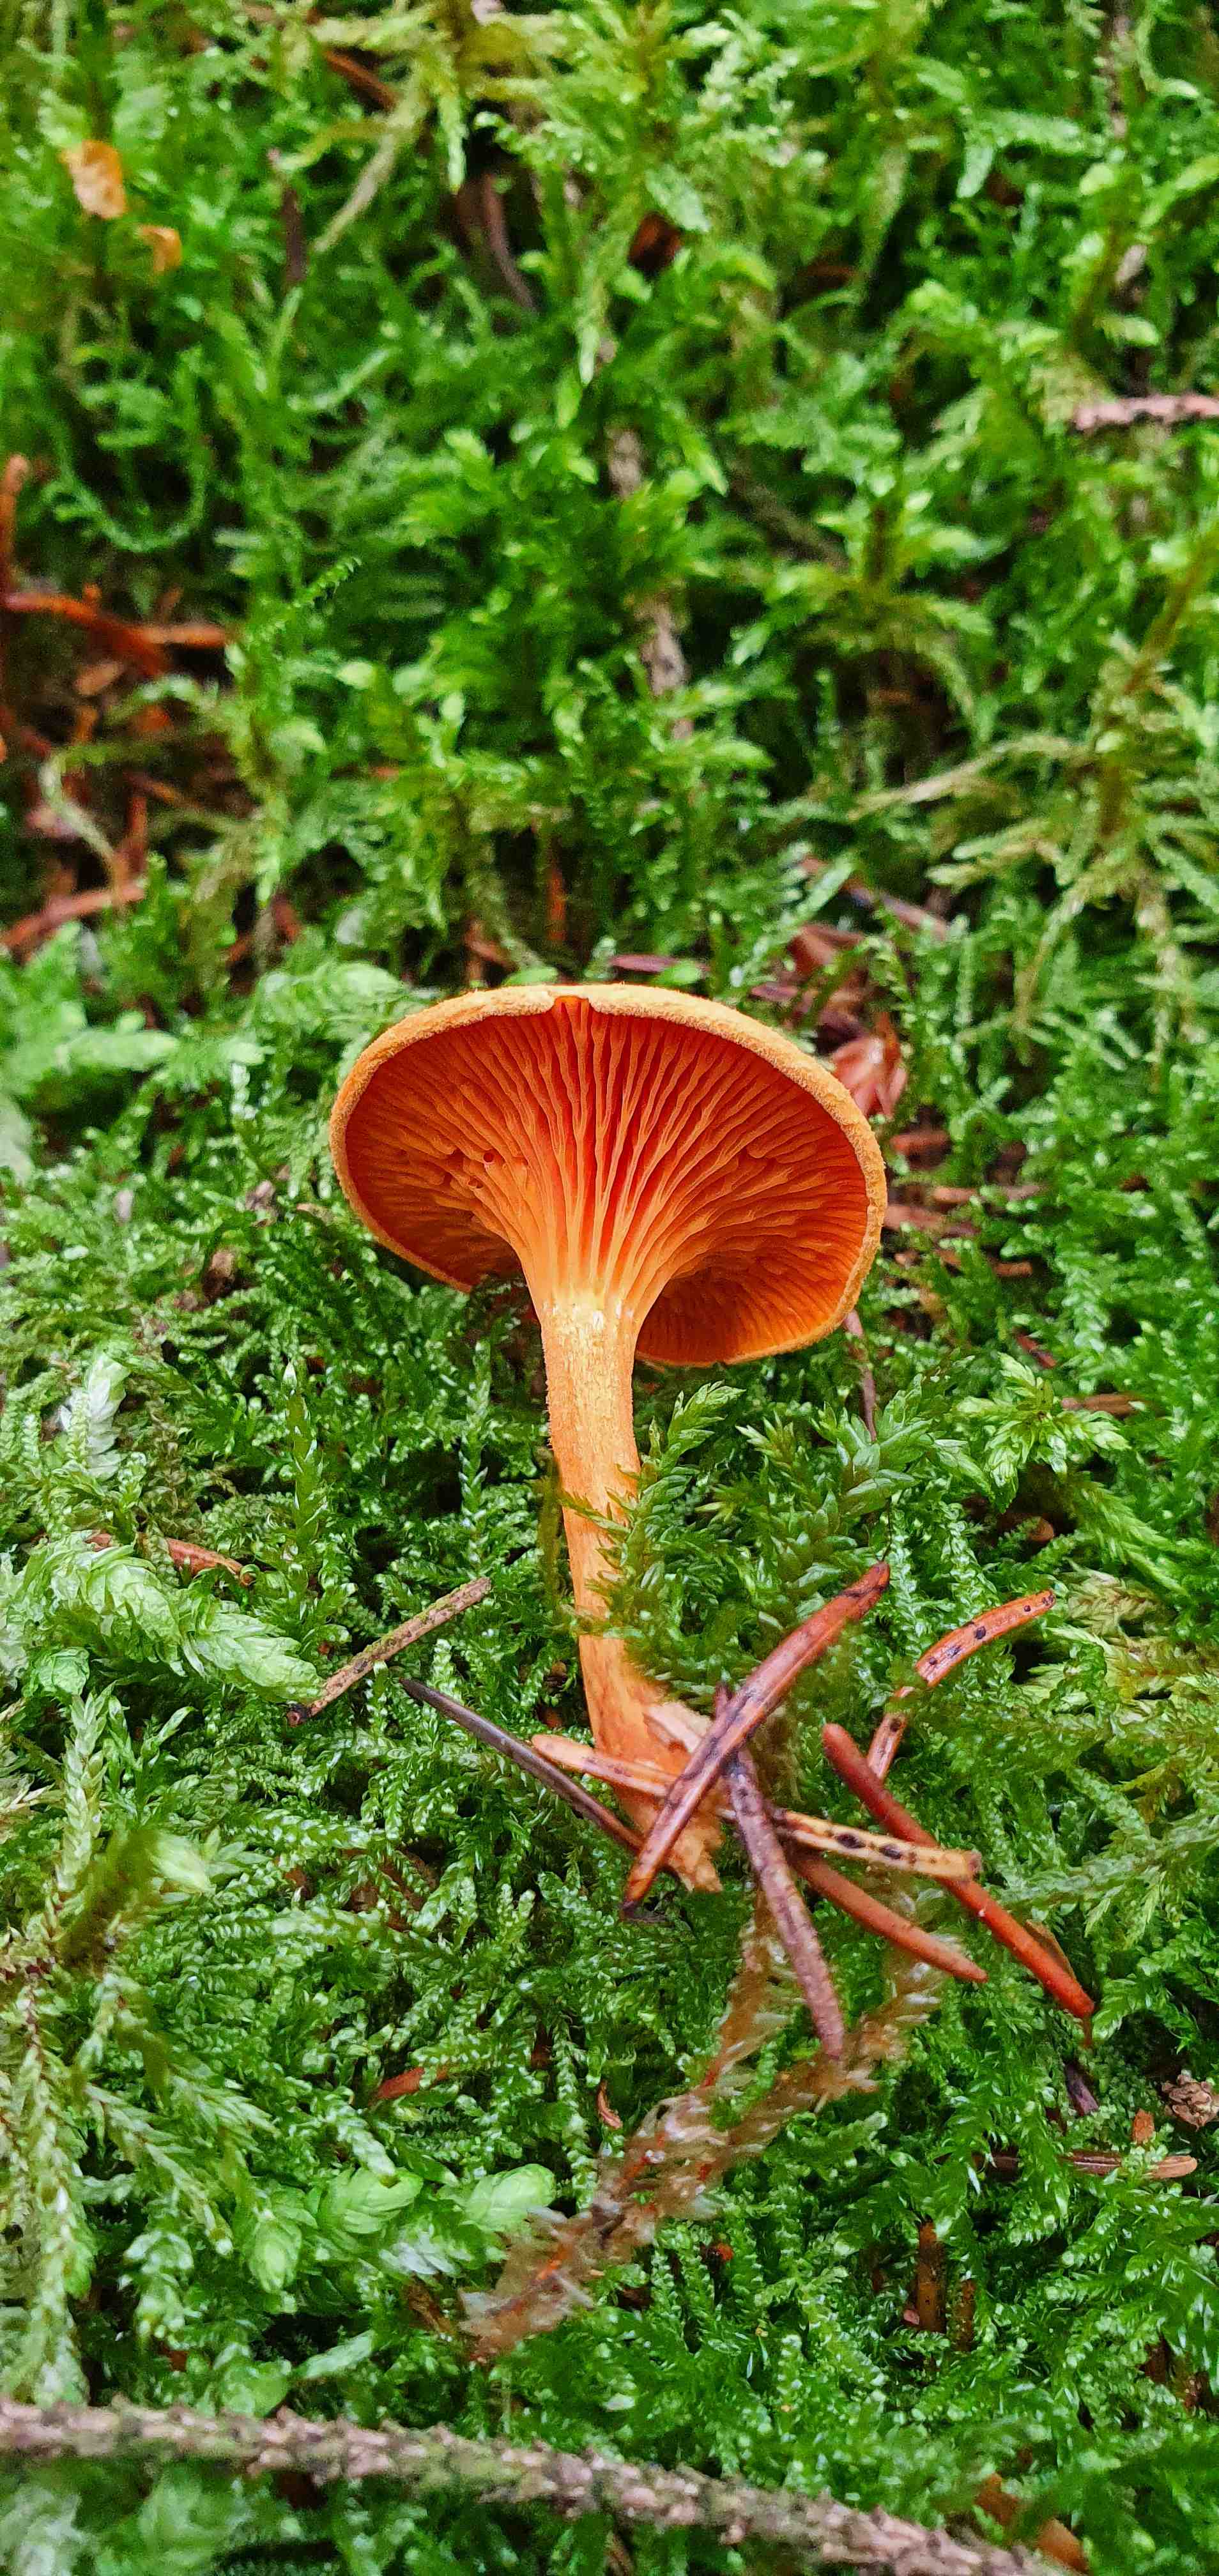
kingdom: Fungi
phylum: Basidiomycota
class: Agaricomycetes
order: Boletales
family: Hygrophoropsidaceae
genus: Hygrophoropsis
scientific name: Hygrophoropsis aurantiaca
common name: almindelig orangekantarel
